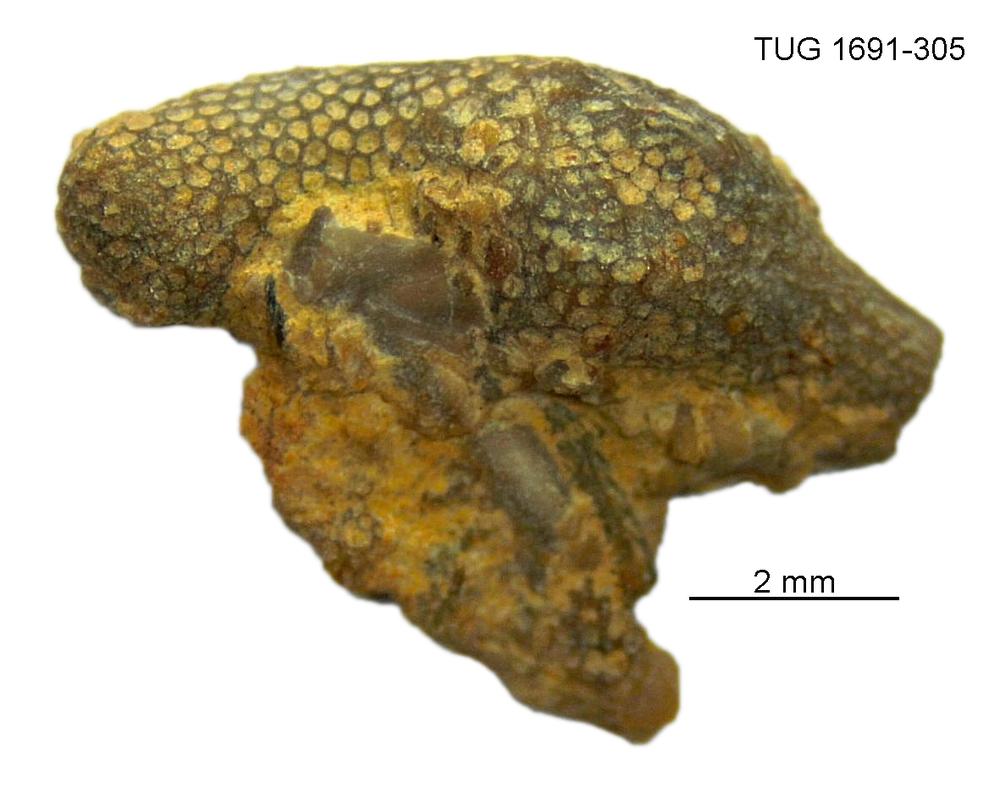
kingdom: Animalia
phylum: Bryozoa
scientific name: Bryozoa
